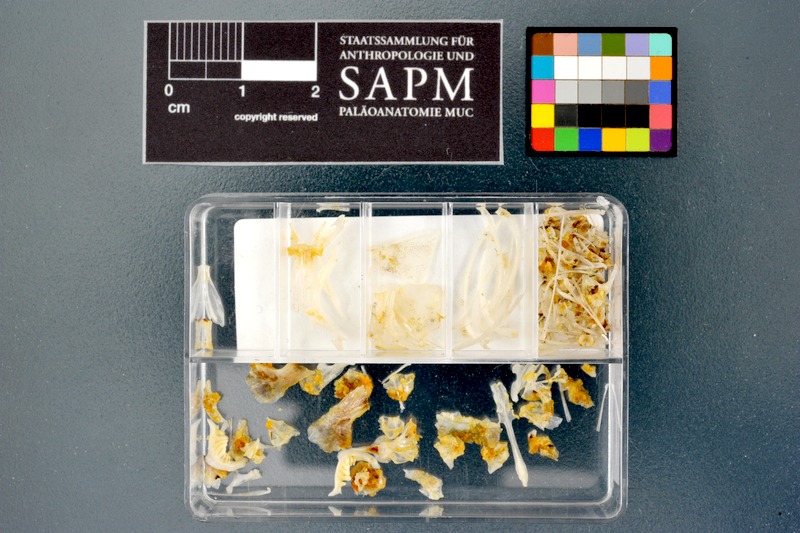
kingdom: Animalia
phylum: Chordata
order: Cypriniformes
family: Cyprinidae
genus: Enteromius
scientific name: Enteromius perince
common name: Three spot barb
